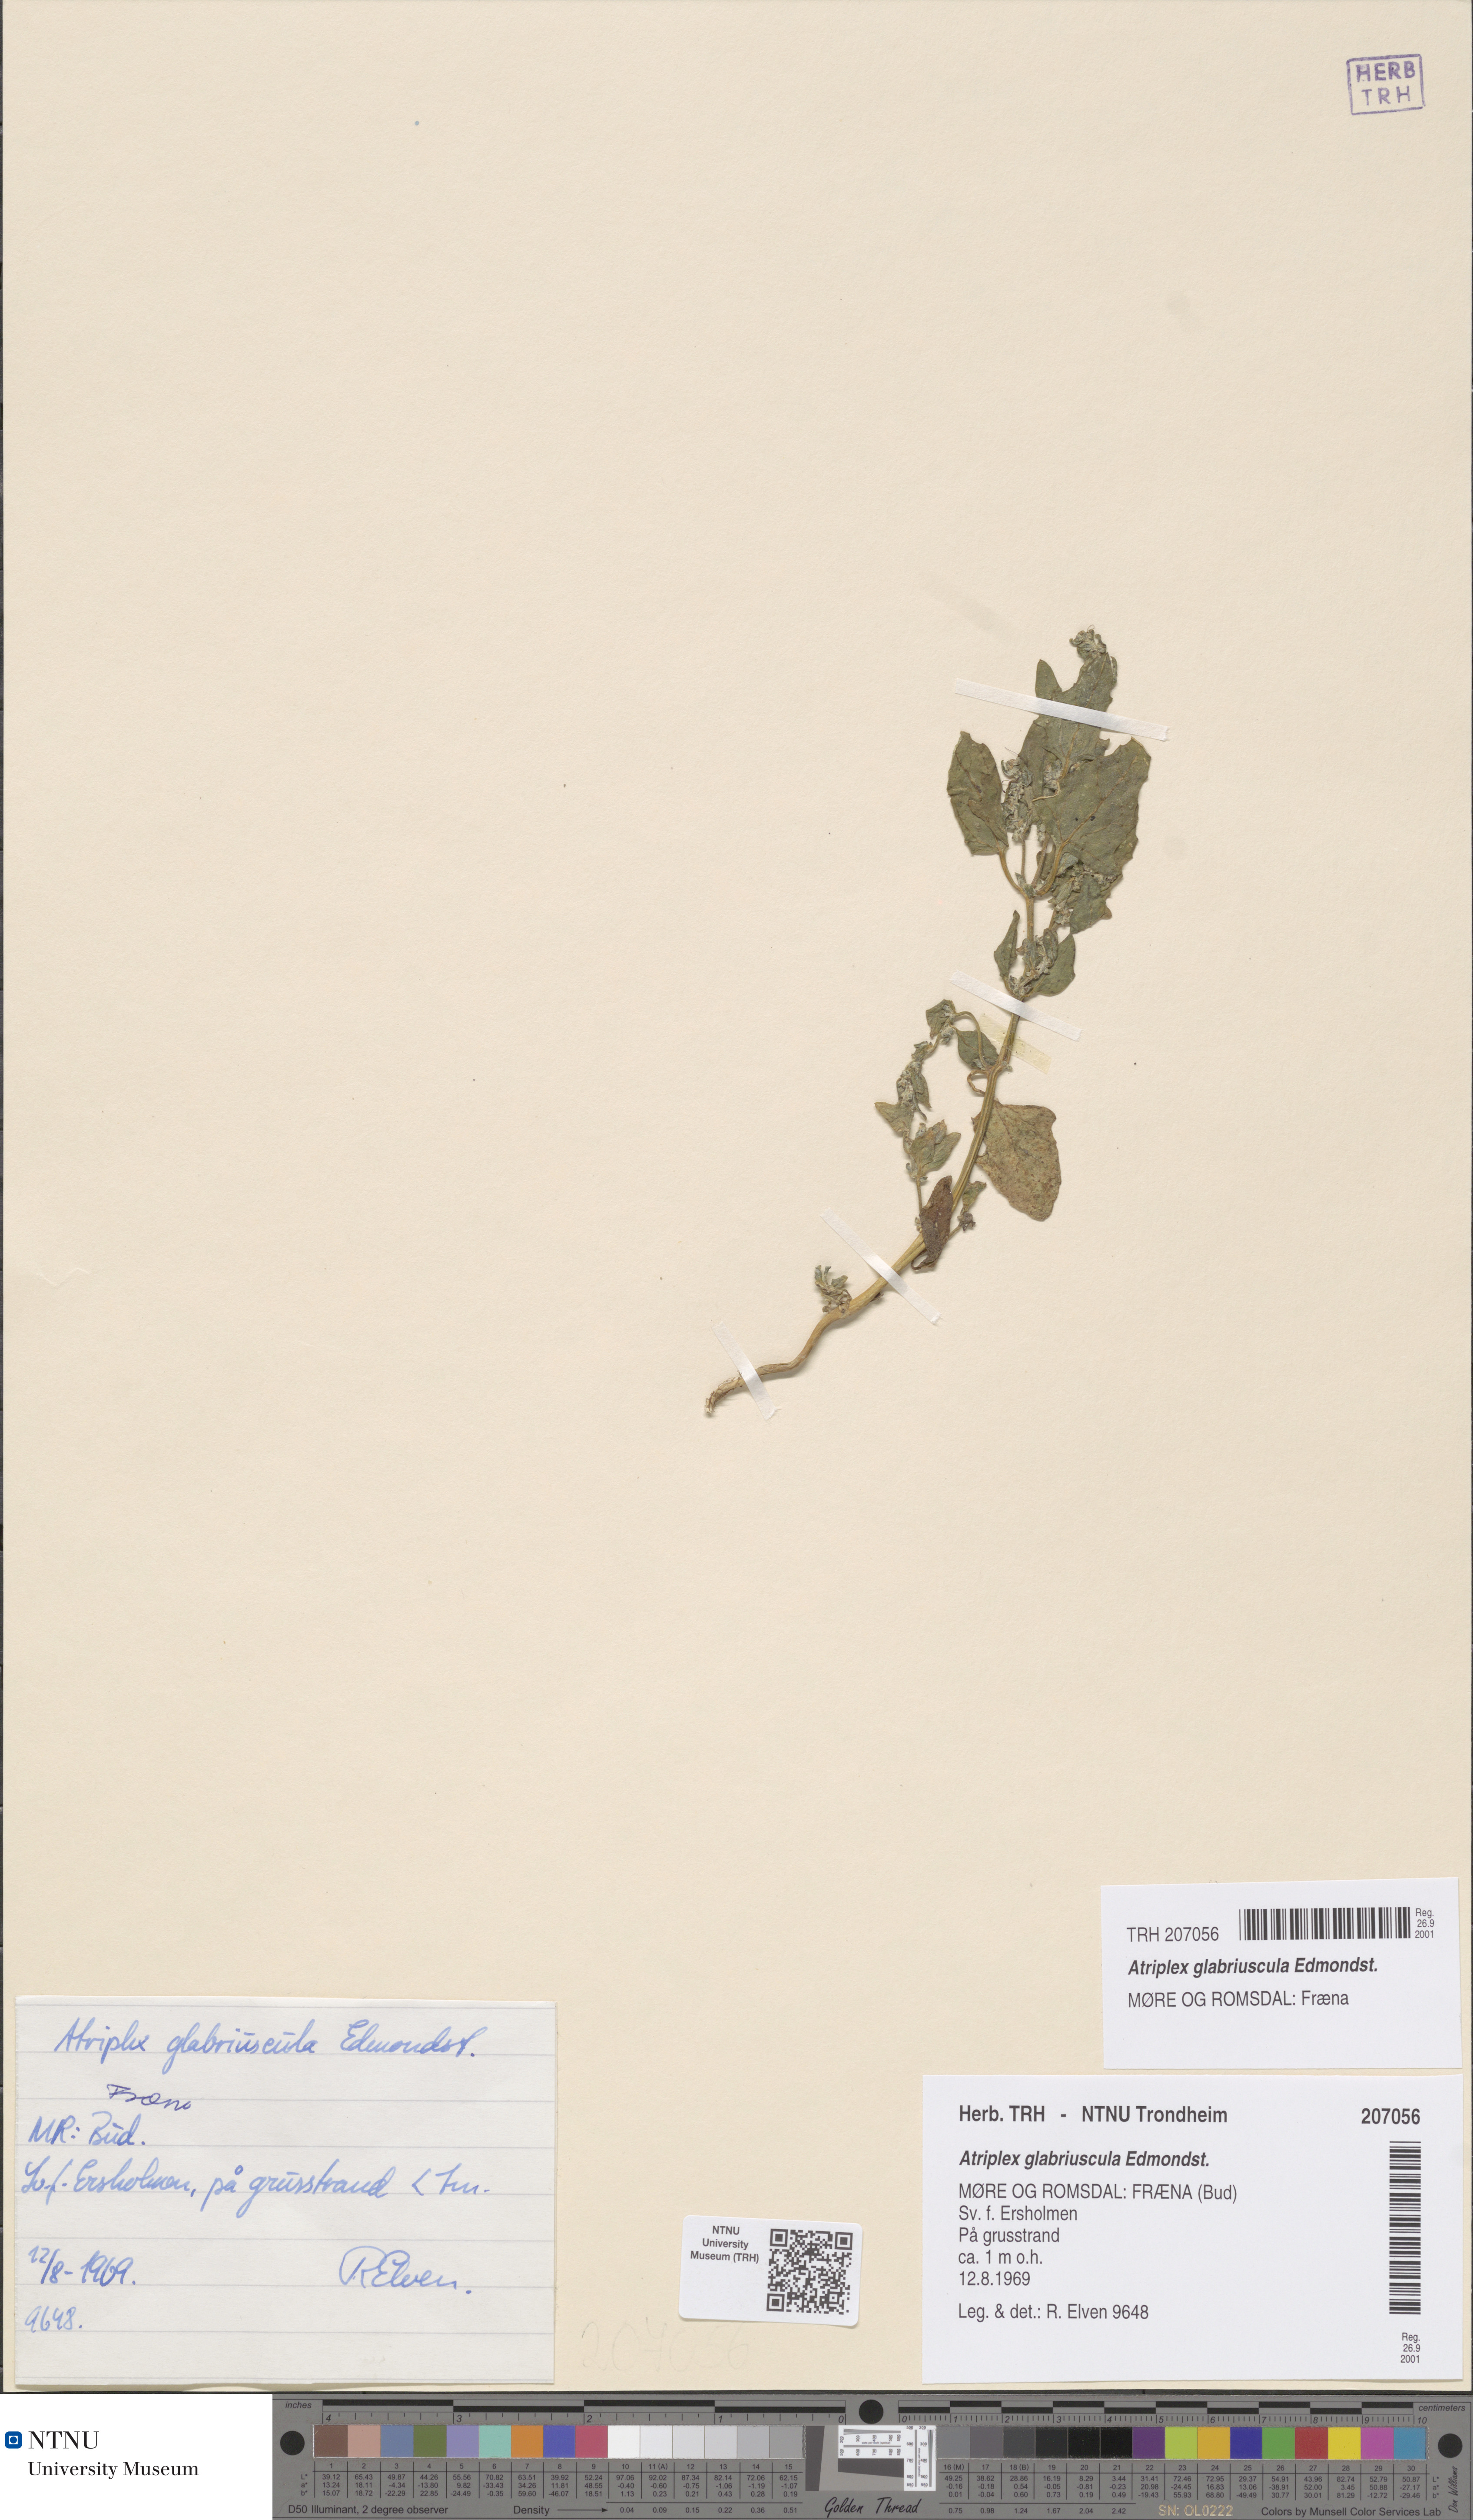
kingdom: Plantae
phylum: Tracheophyta
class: Magnoliopsida
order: Caryophyllales
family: Amaranthaceae
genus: Atriplex
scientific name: Atriplex glabriuscula
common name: Babington's orache
